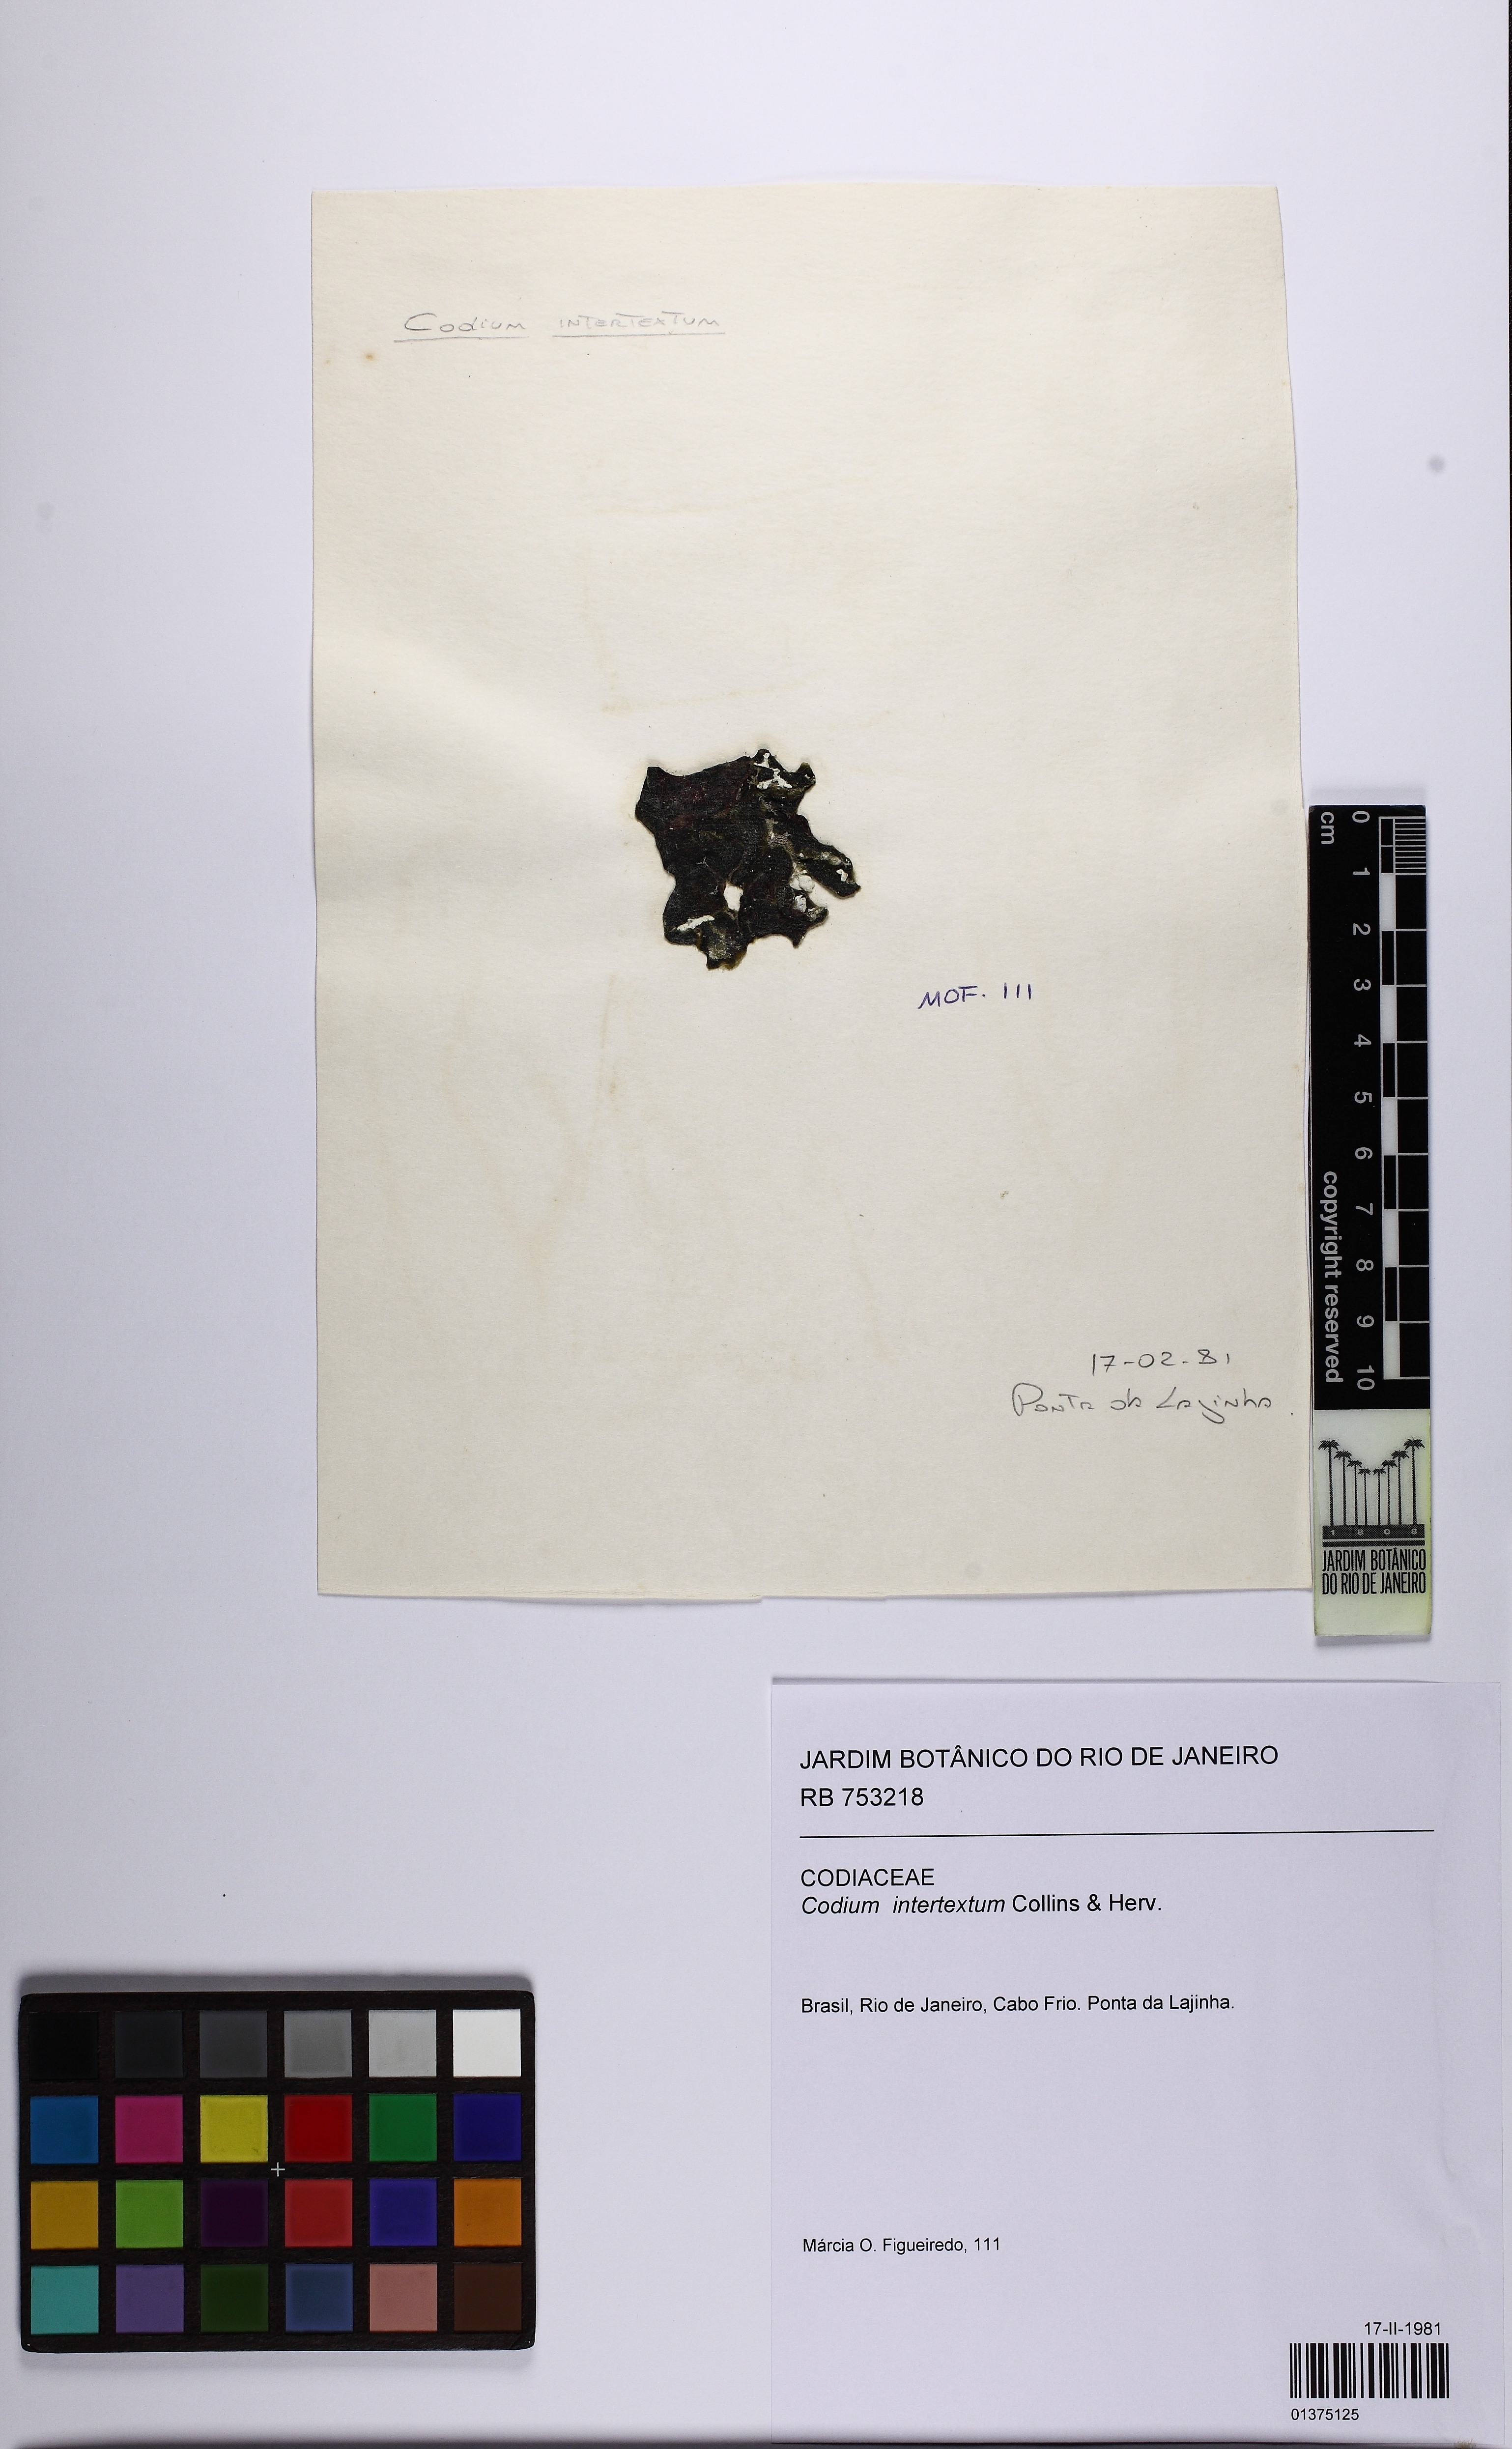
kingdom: Plantae
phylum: Chlorophyta
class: Ulvophyceae
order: Bryopsidales
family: Codiaceae
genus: Codium
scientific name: Codium intertextum
